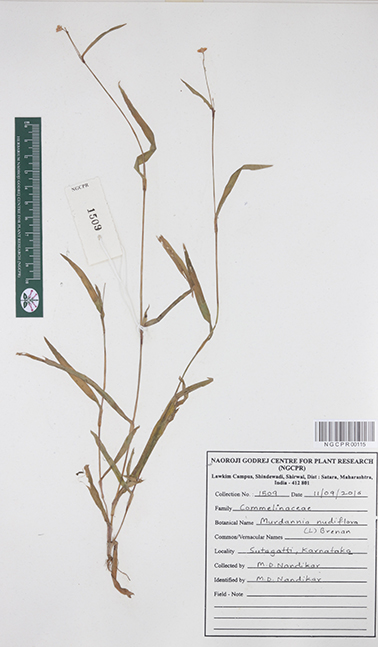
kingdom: Plantae
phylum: Tracheophyta
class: Liliopsida
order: Commelinales
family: Commelinaceae
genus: Murdannia
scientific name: Murdannia nudiflora
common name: Nakedstem dewflower
